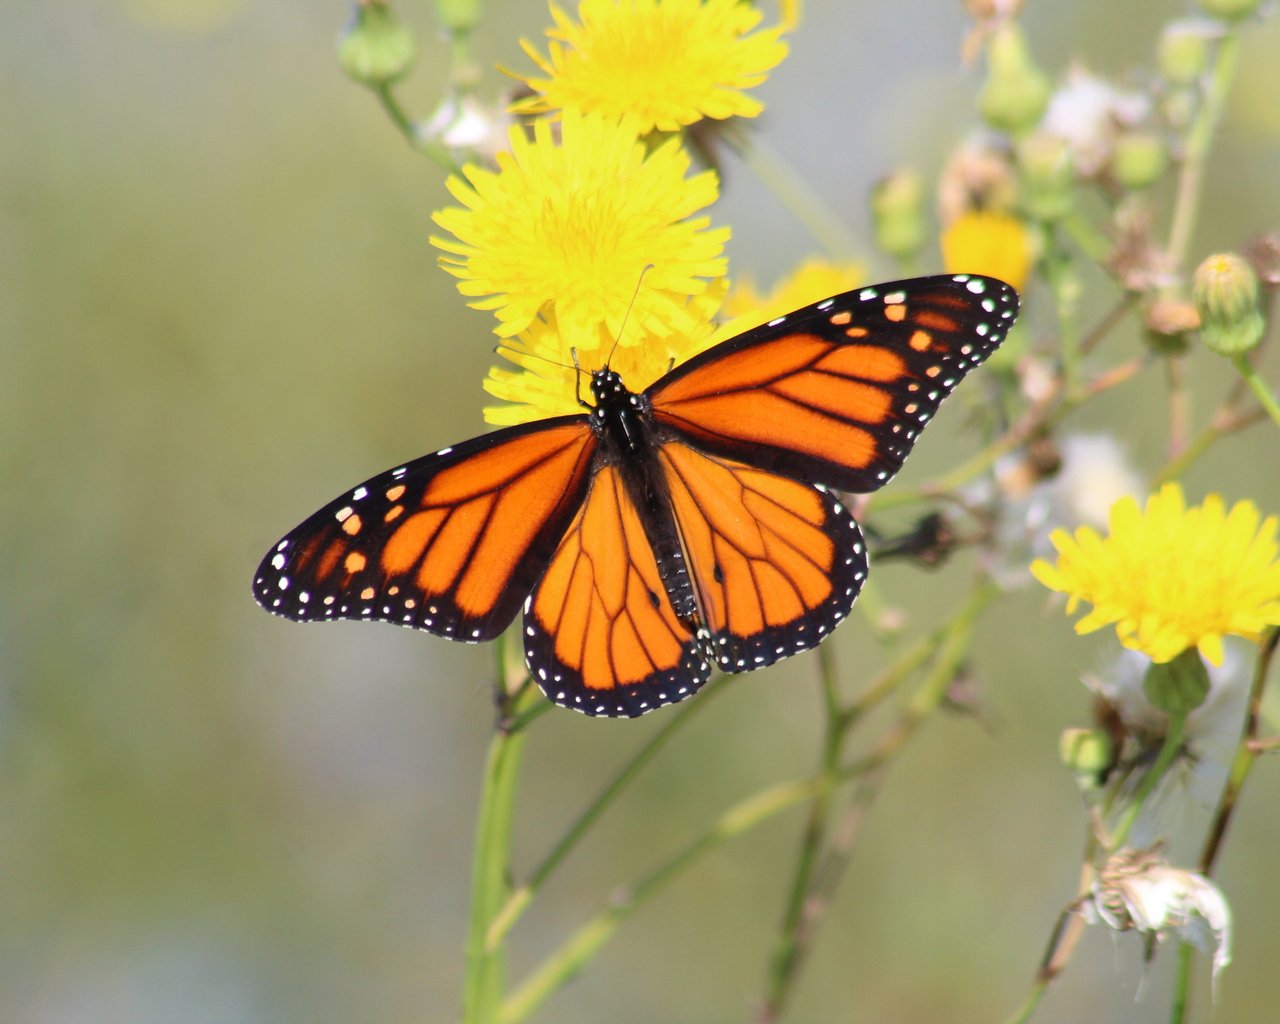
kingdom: Animalia
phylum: Arthropoda
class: Insecta
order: Lepidoptera
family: Nymphalidae
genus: Danaus
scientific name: Danaus plexippus
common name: Monarch
